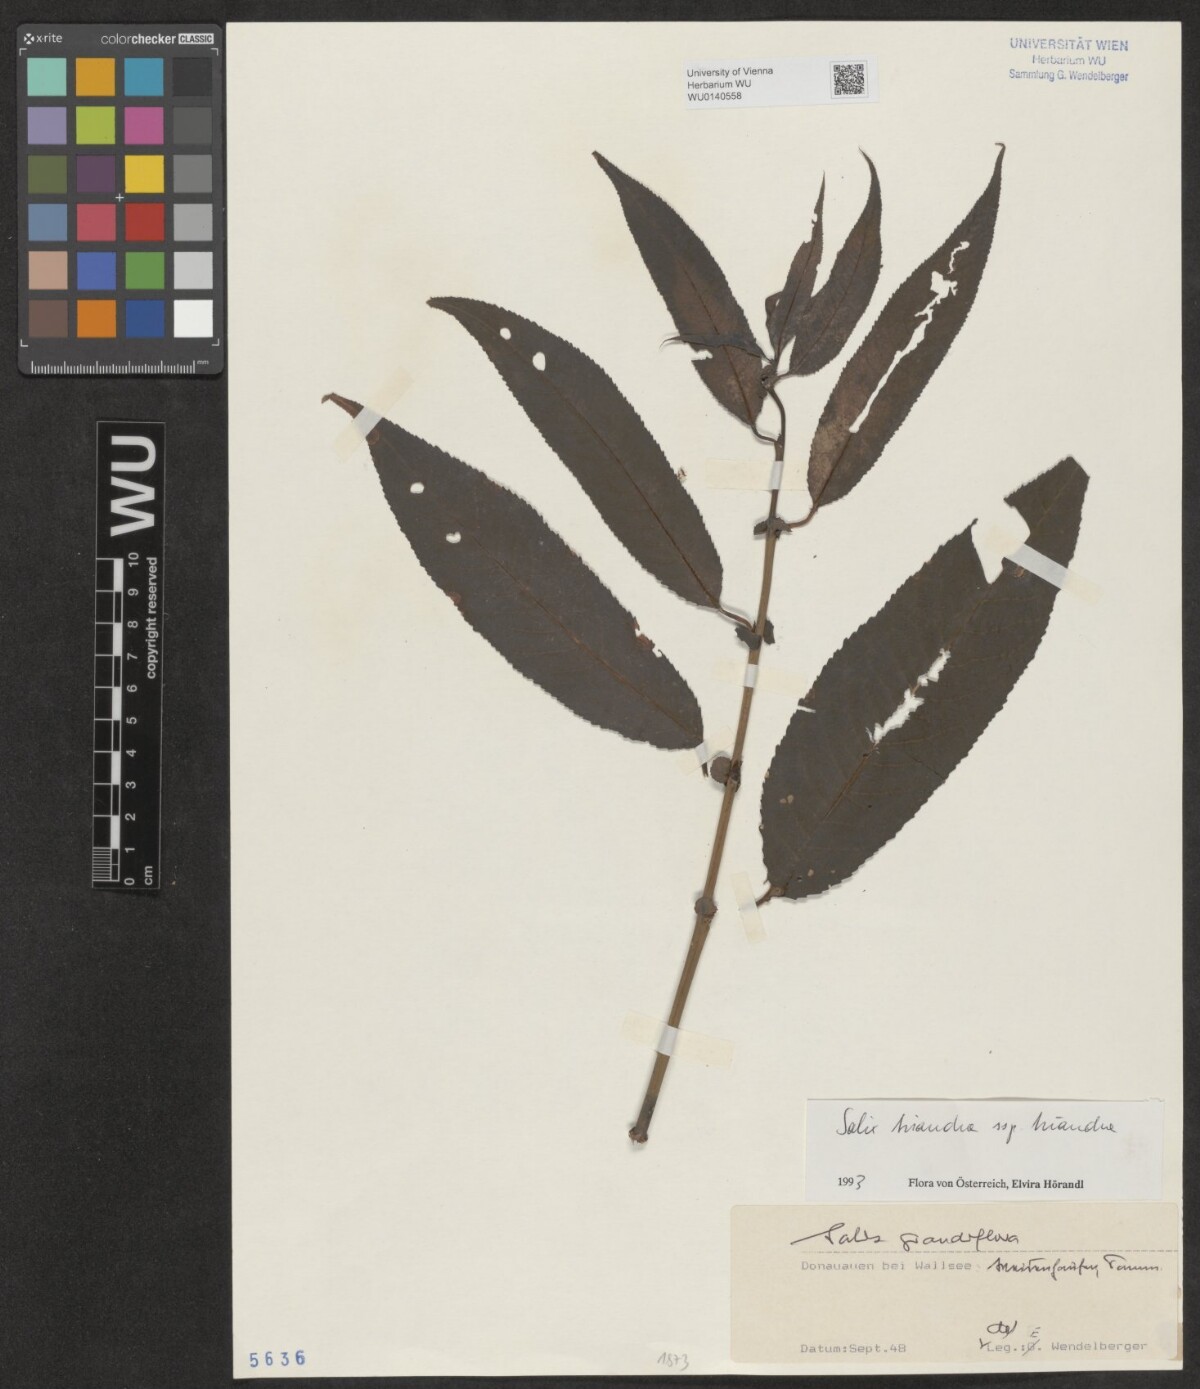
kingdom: Plantae
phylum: Tracheophyta
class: Magnoliopsida
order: Malpighiales
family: Salicaceae
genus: Salix
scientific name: Salix triandra
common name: Almond willow
